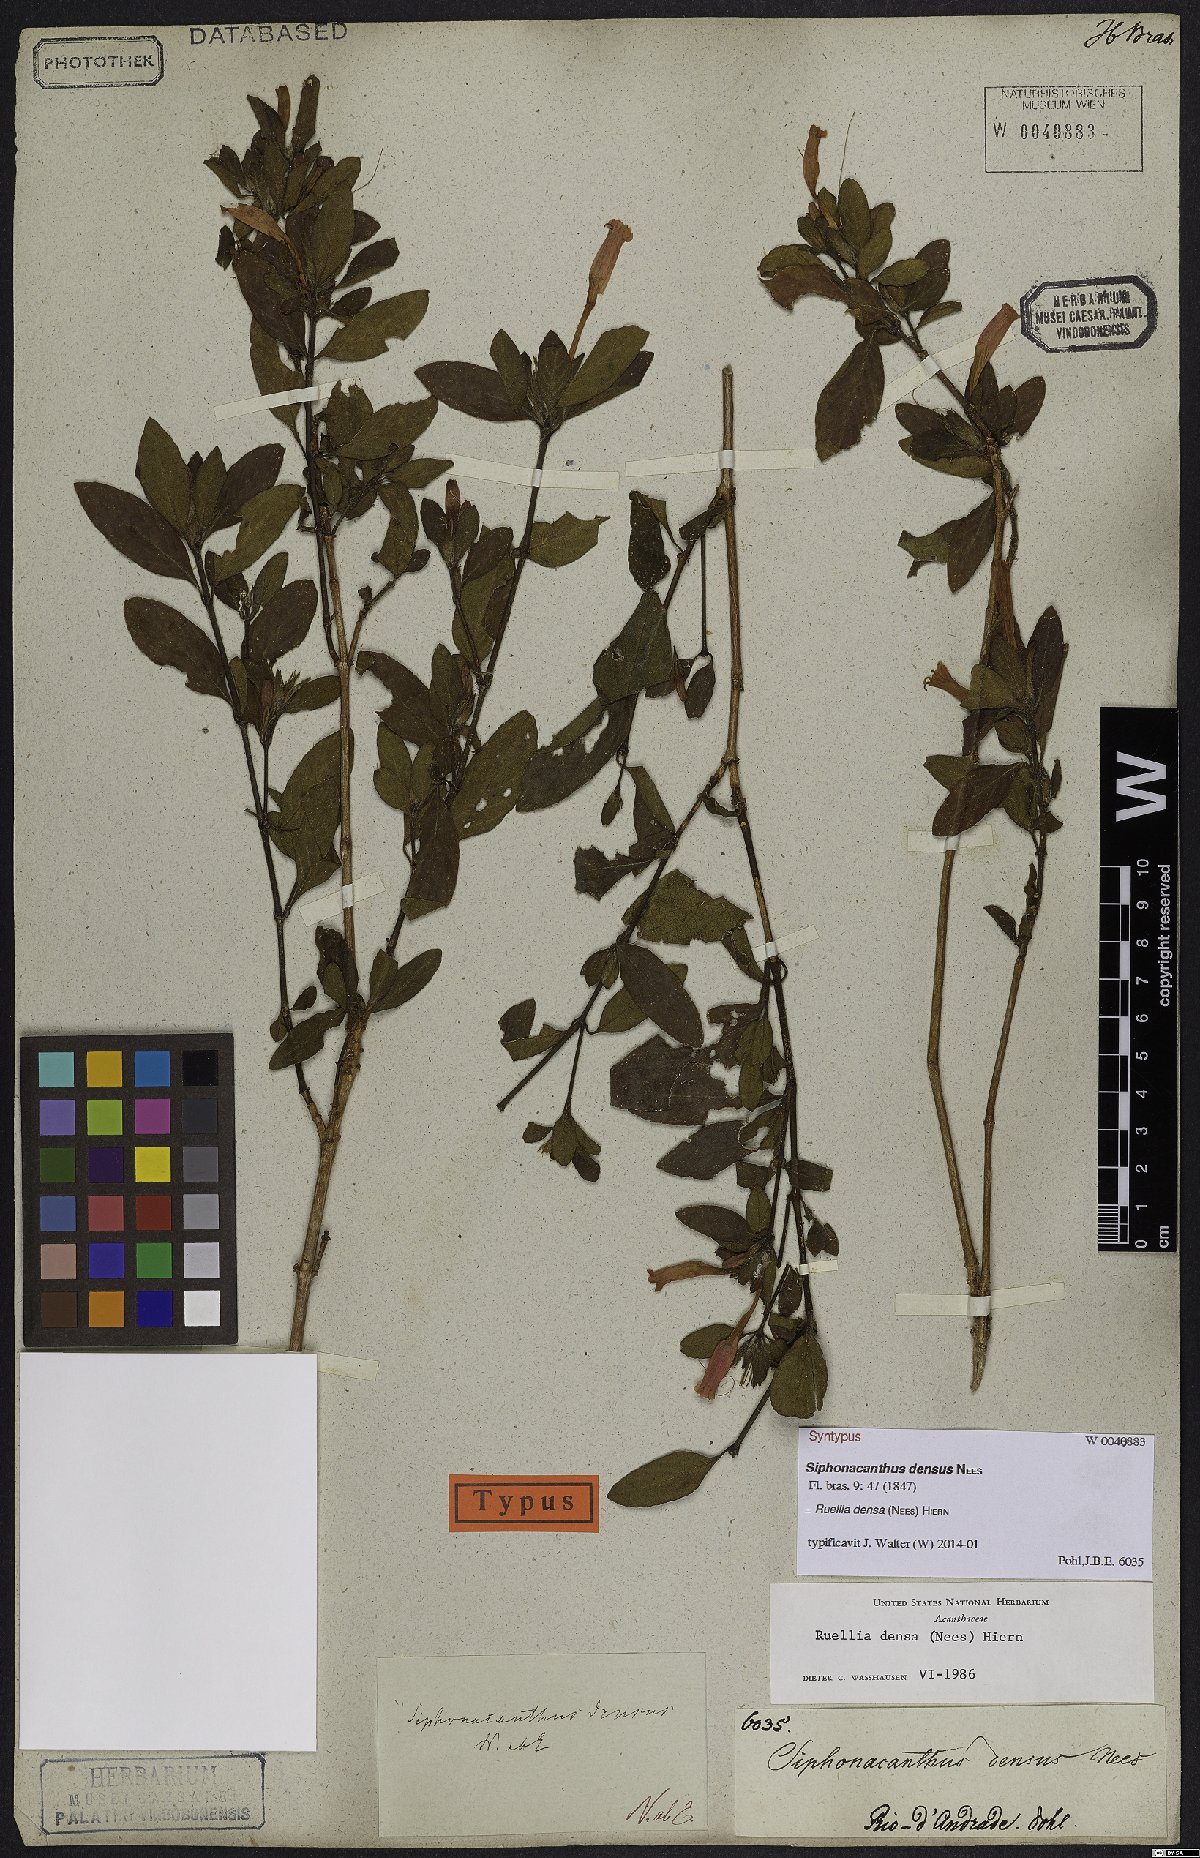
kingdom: Plantae
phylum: Tracheophyta
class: Magnoliopsida
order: Lamiales
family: Acanthaceae
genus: Ruellia
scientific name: Ruellia densa
